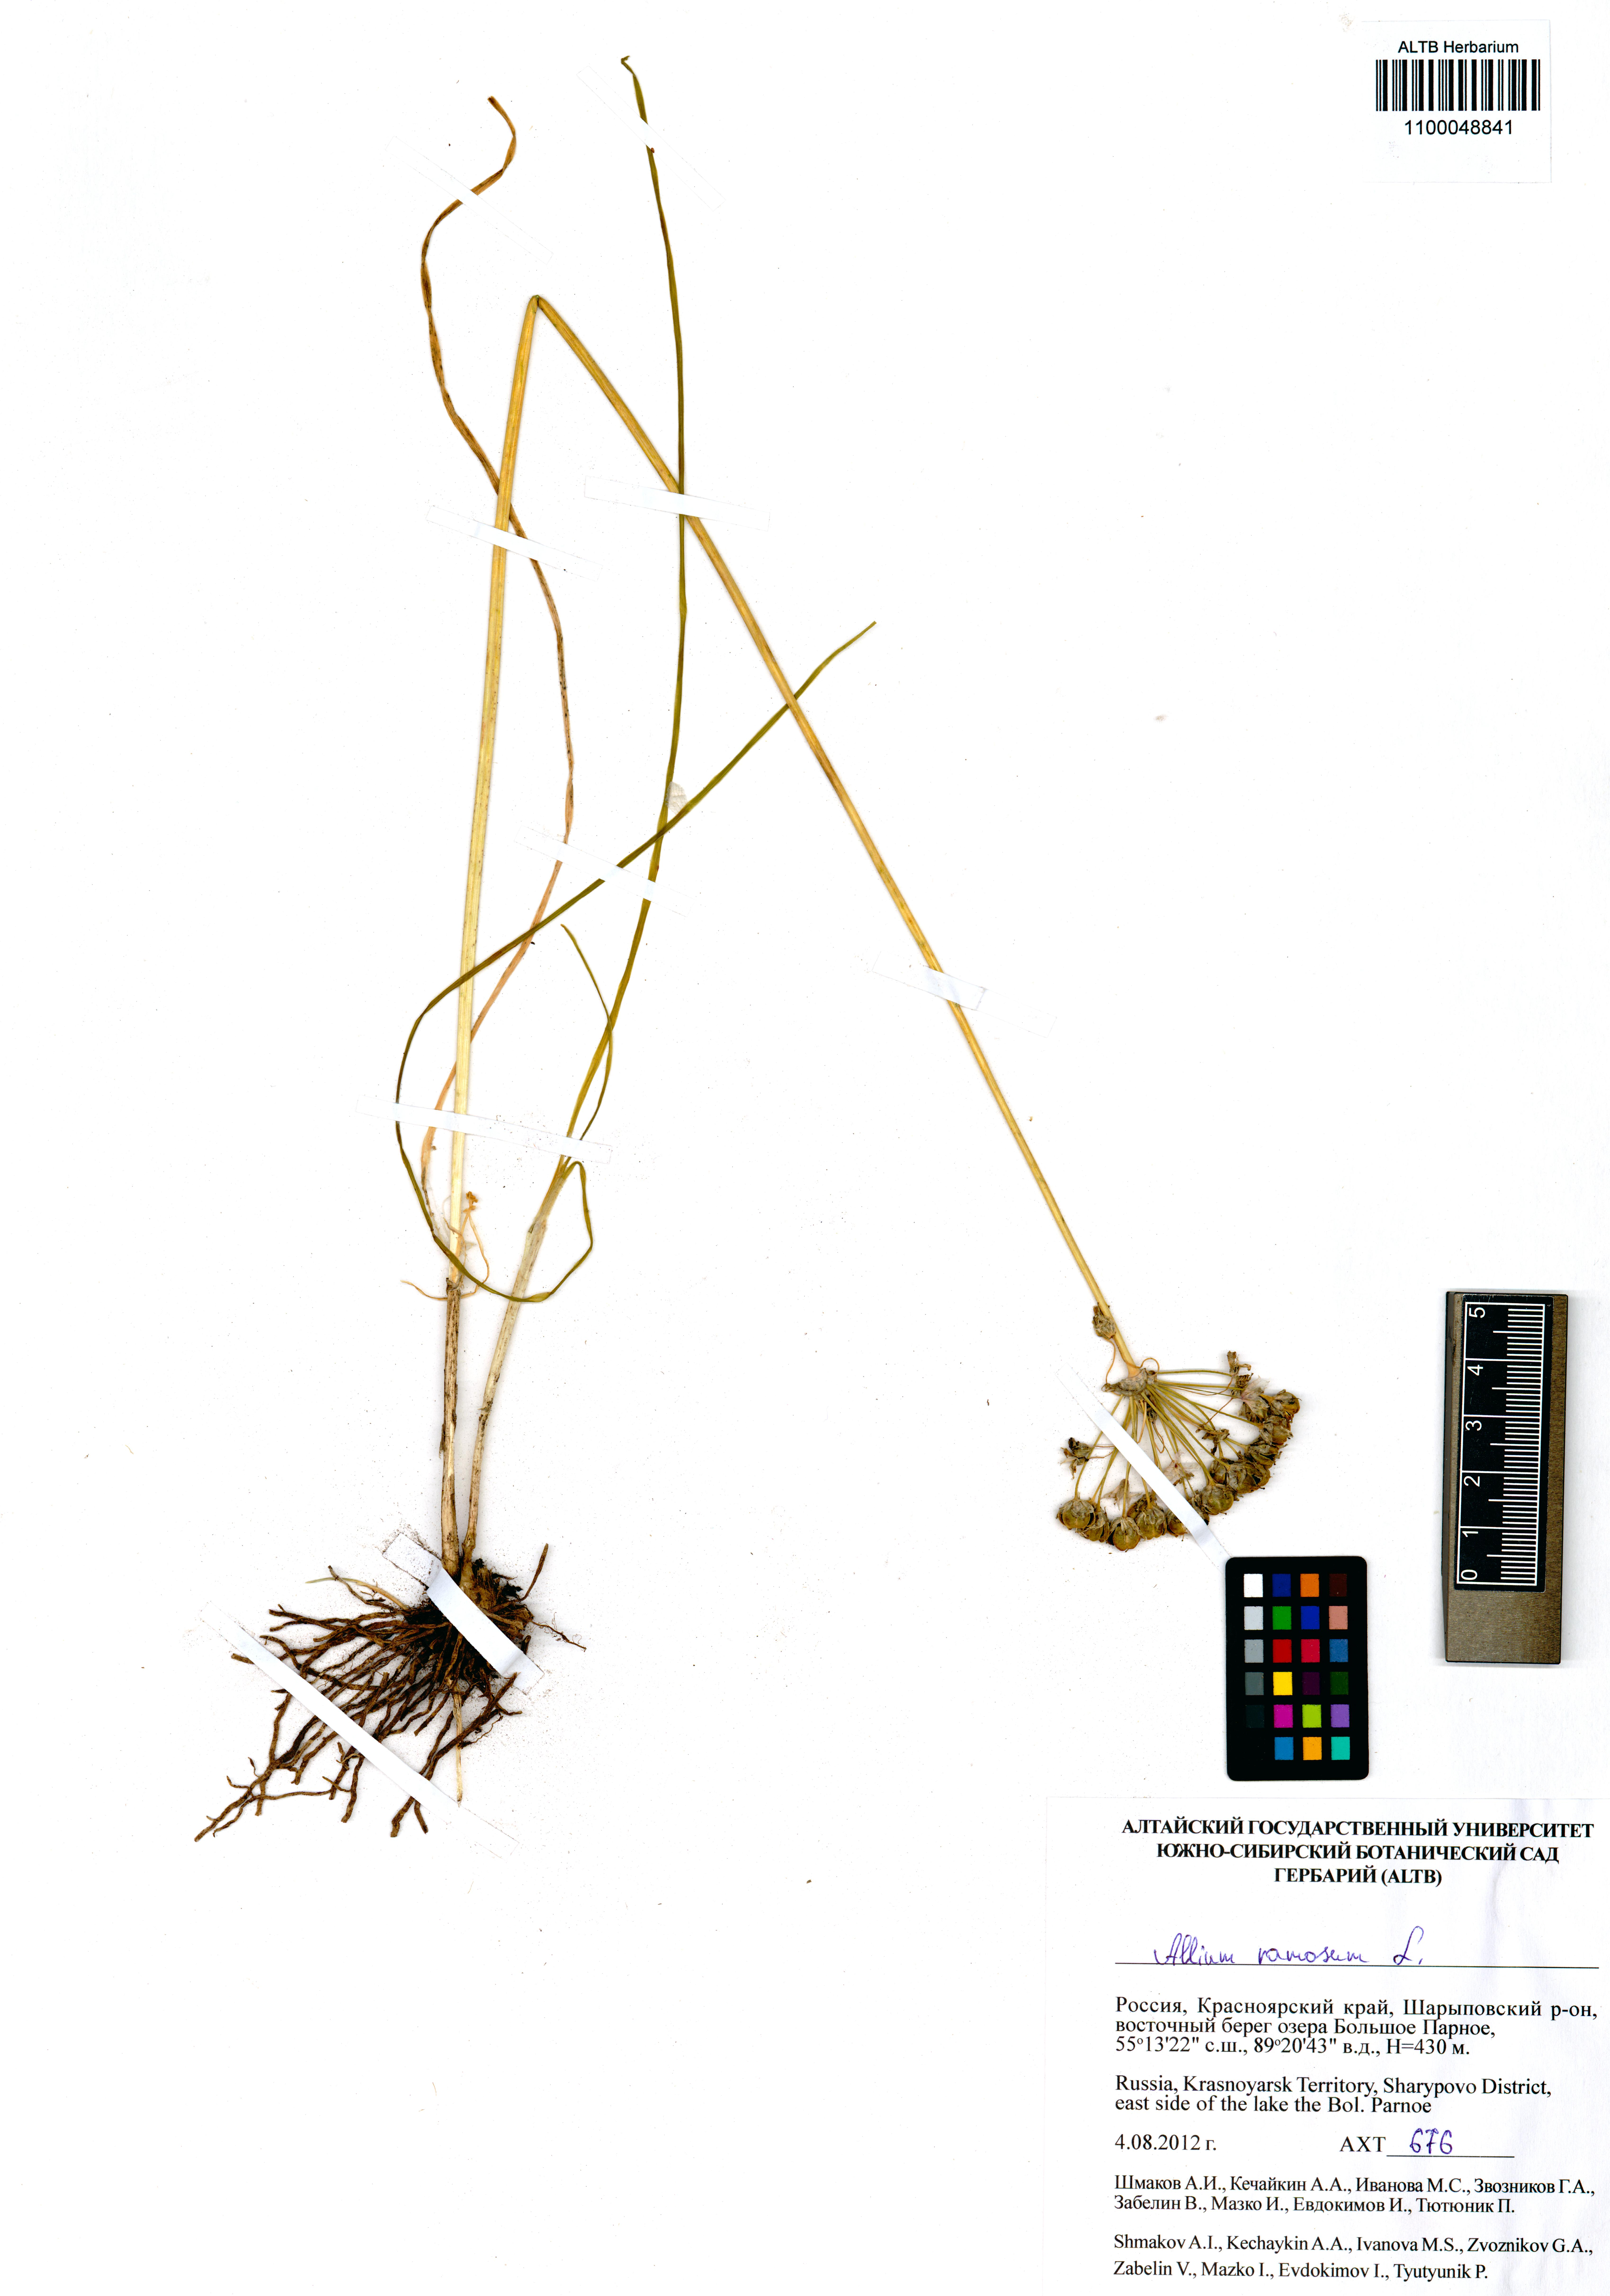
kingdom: Plantae
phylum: Tracheophyta
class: Liliopsida
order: Asparagales
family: Amaryllidaceae
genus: Allium
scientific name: Allium ramosum
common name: Fragrant garlic
